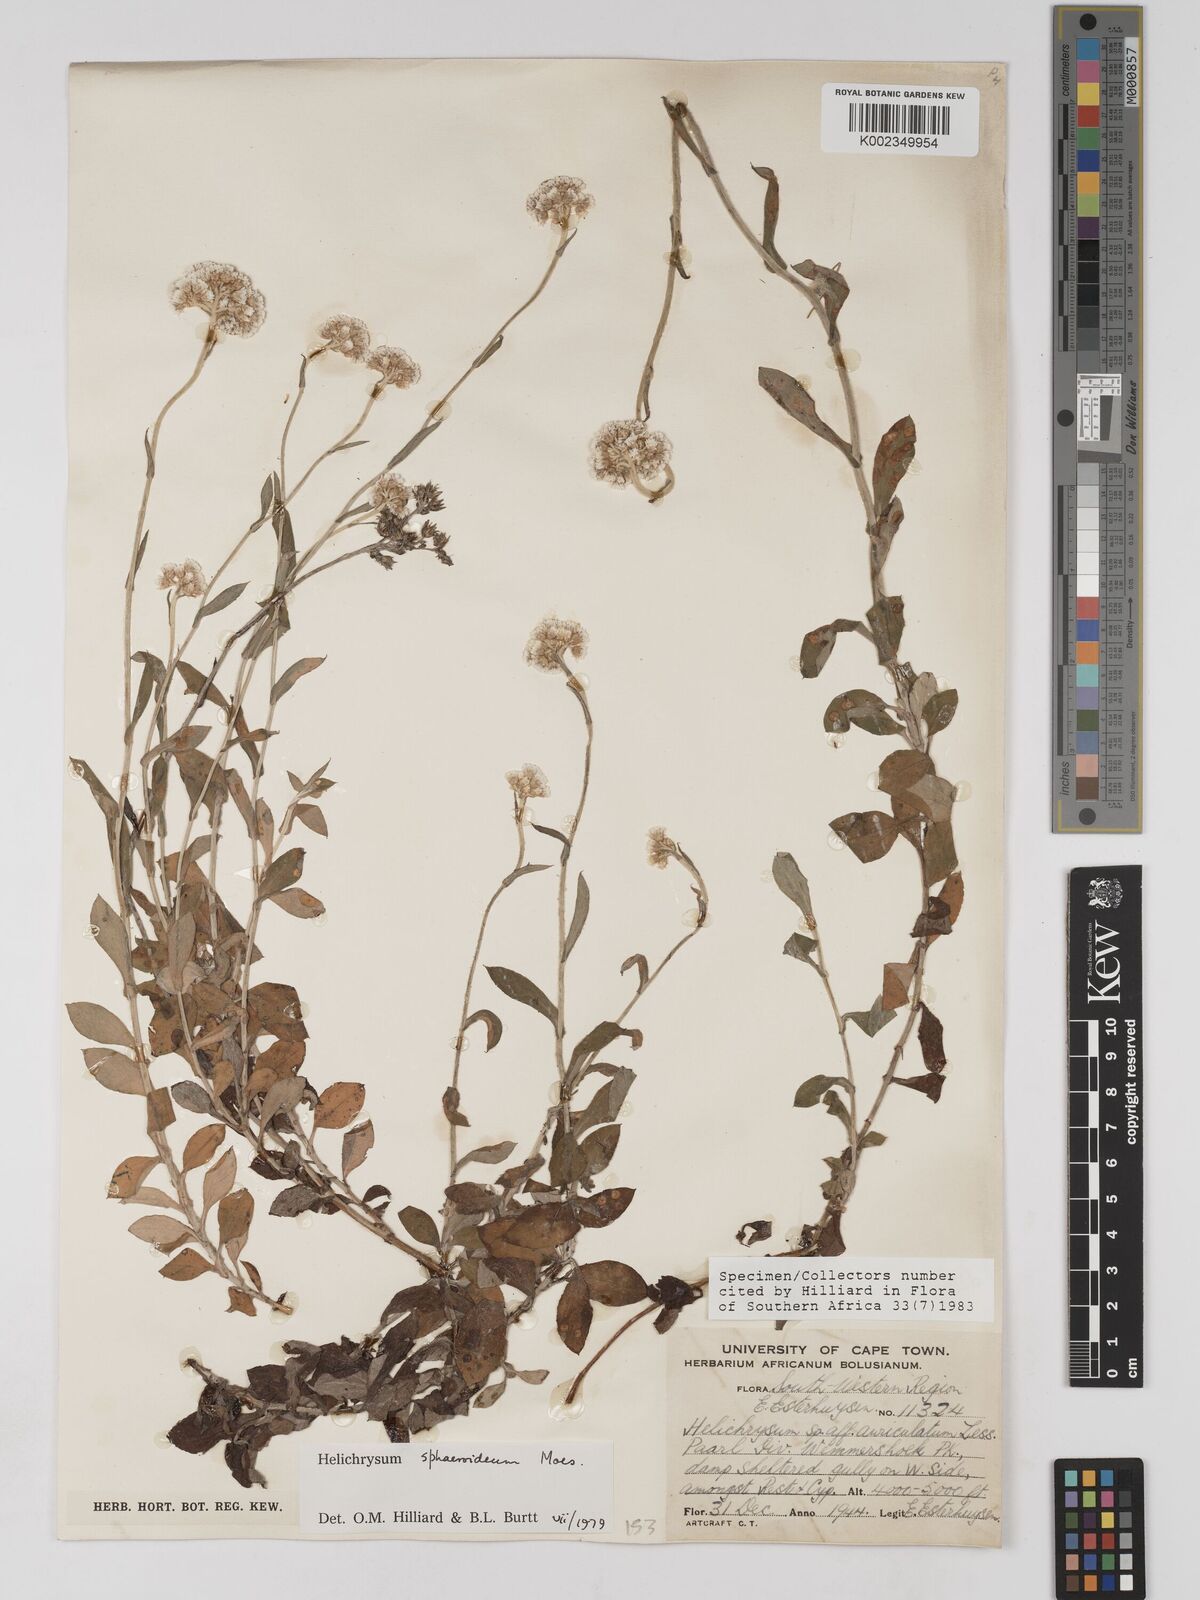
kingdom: Plantae
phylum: Tracheophyta
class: Magnoliopsida
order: Asterales
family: Asteraceae
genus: Helichrysum
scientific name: Helichrysum sphaeroideum
